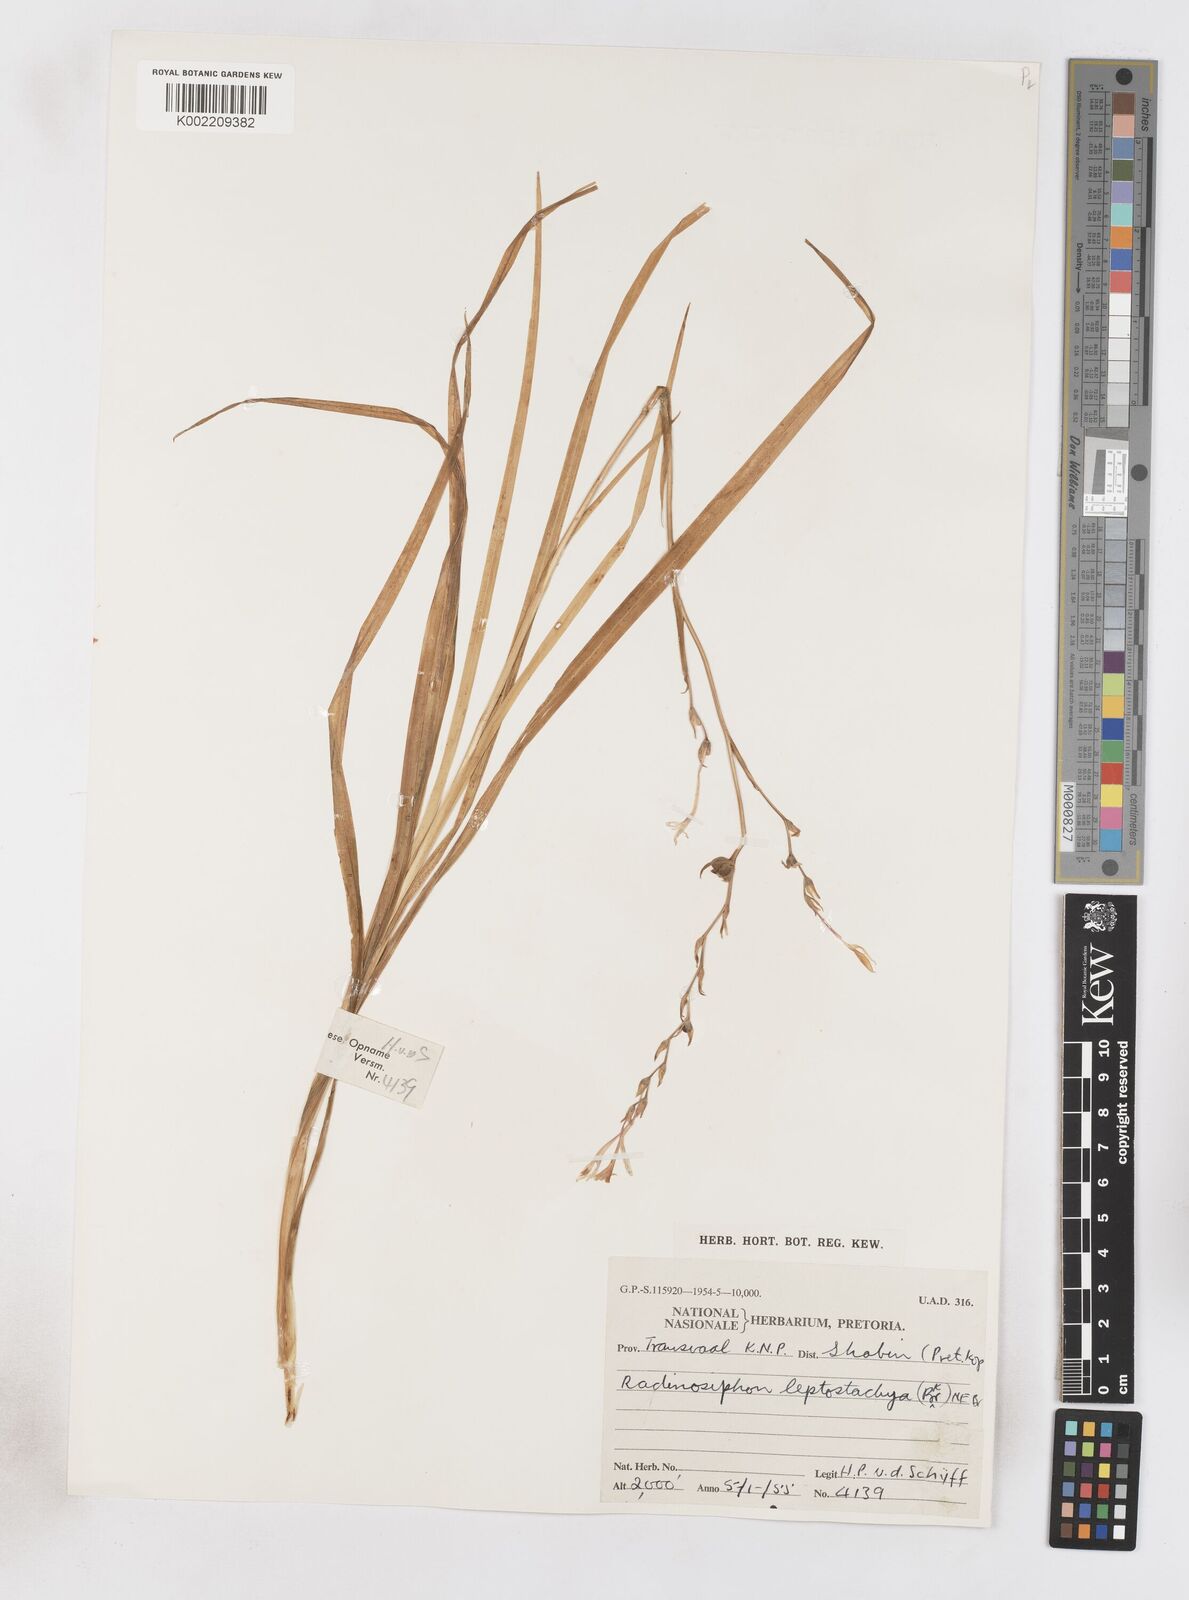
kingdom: Plantae
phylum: Tracheophyta
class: Liliopsida
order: Asparagales
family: Iridaceae
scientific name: Iridaceae
